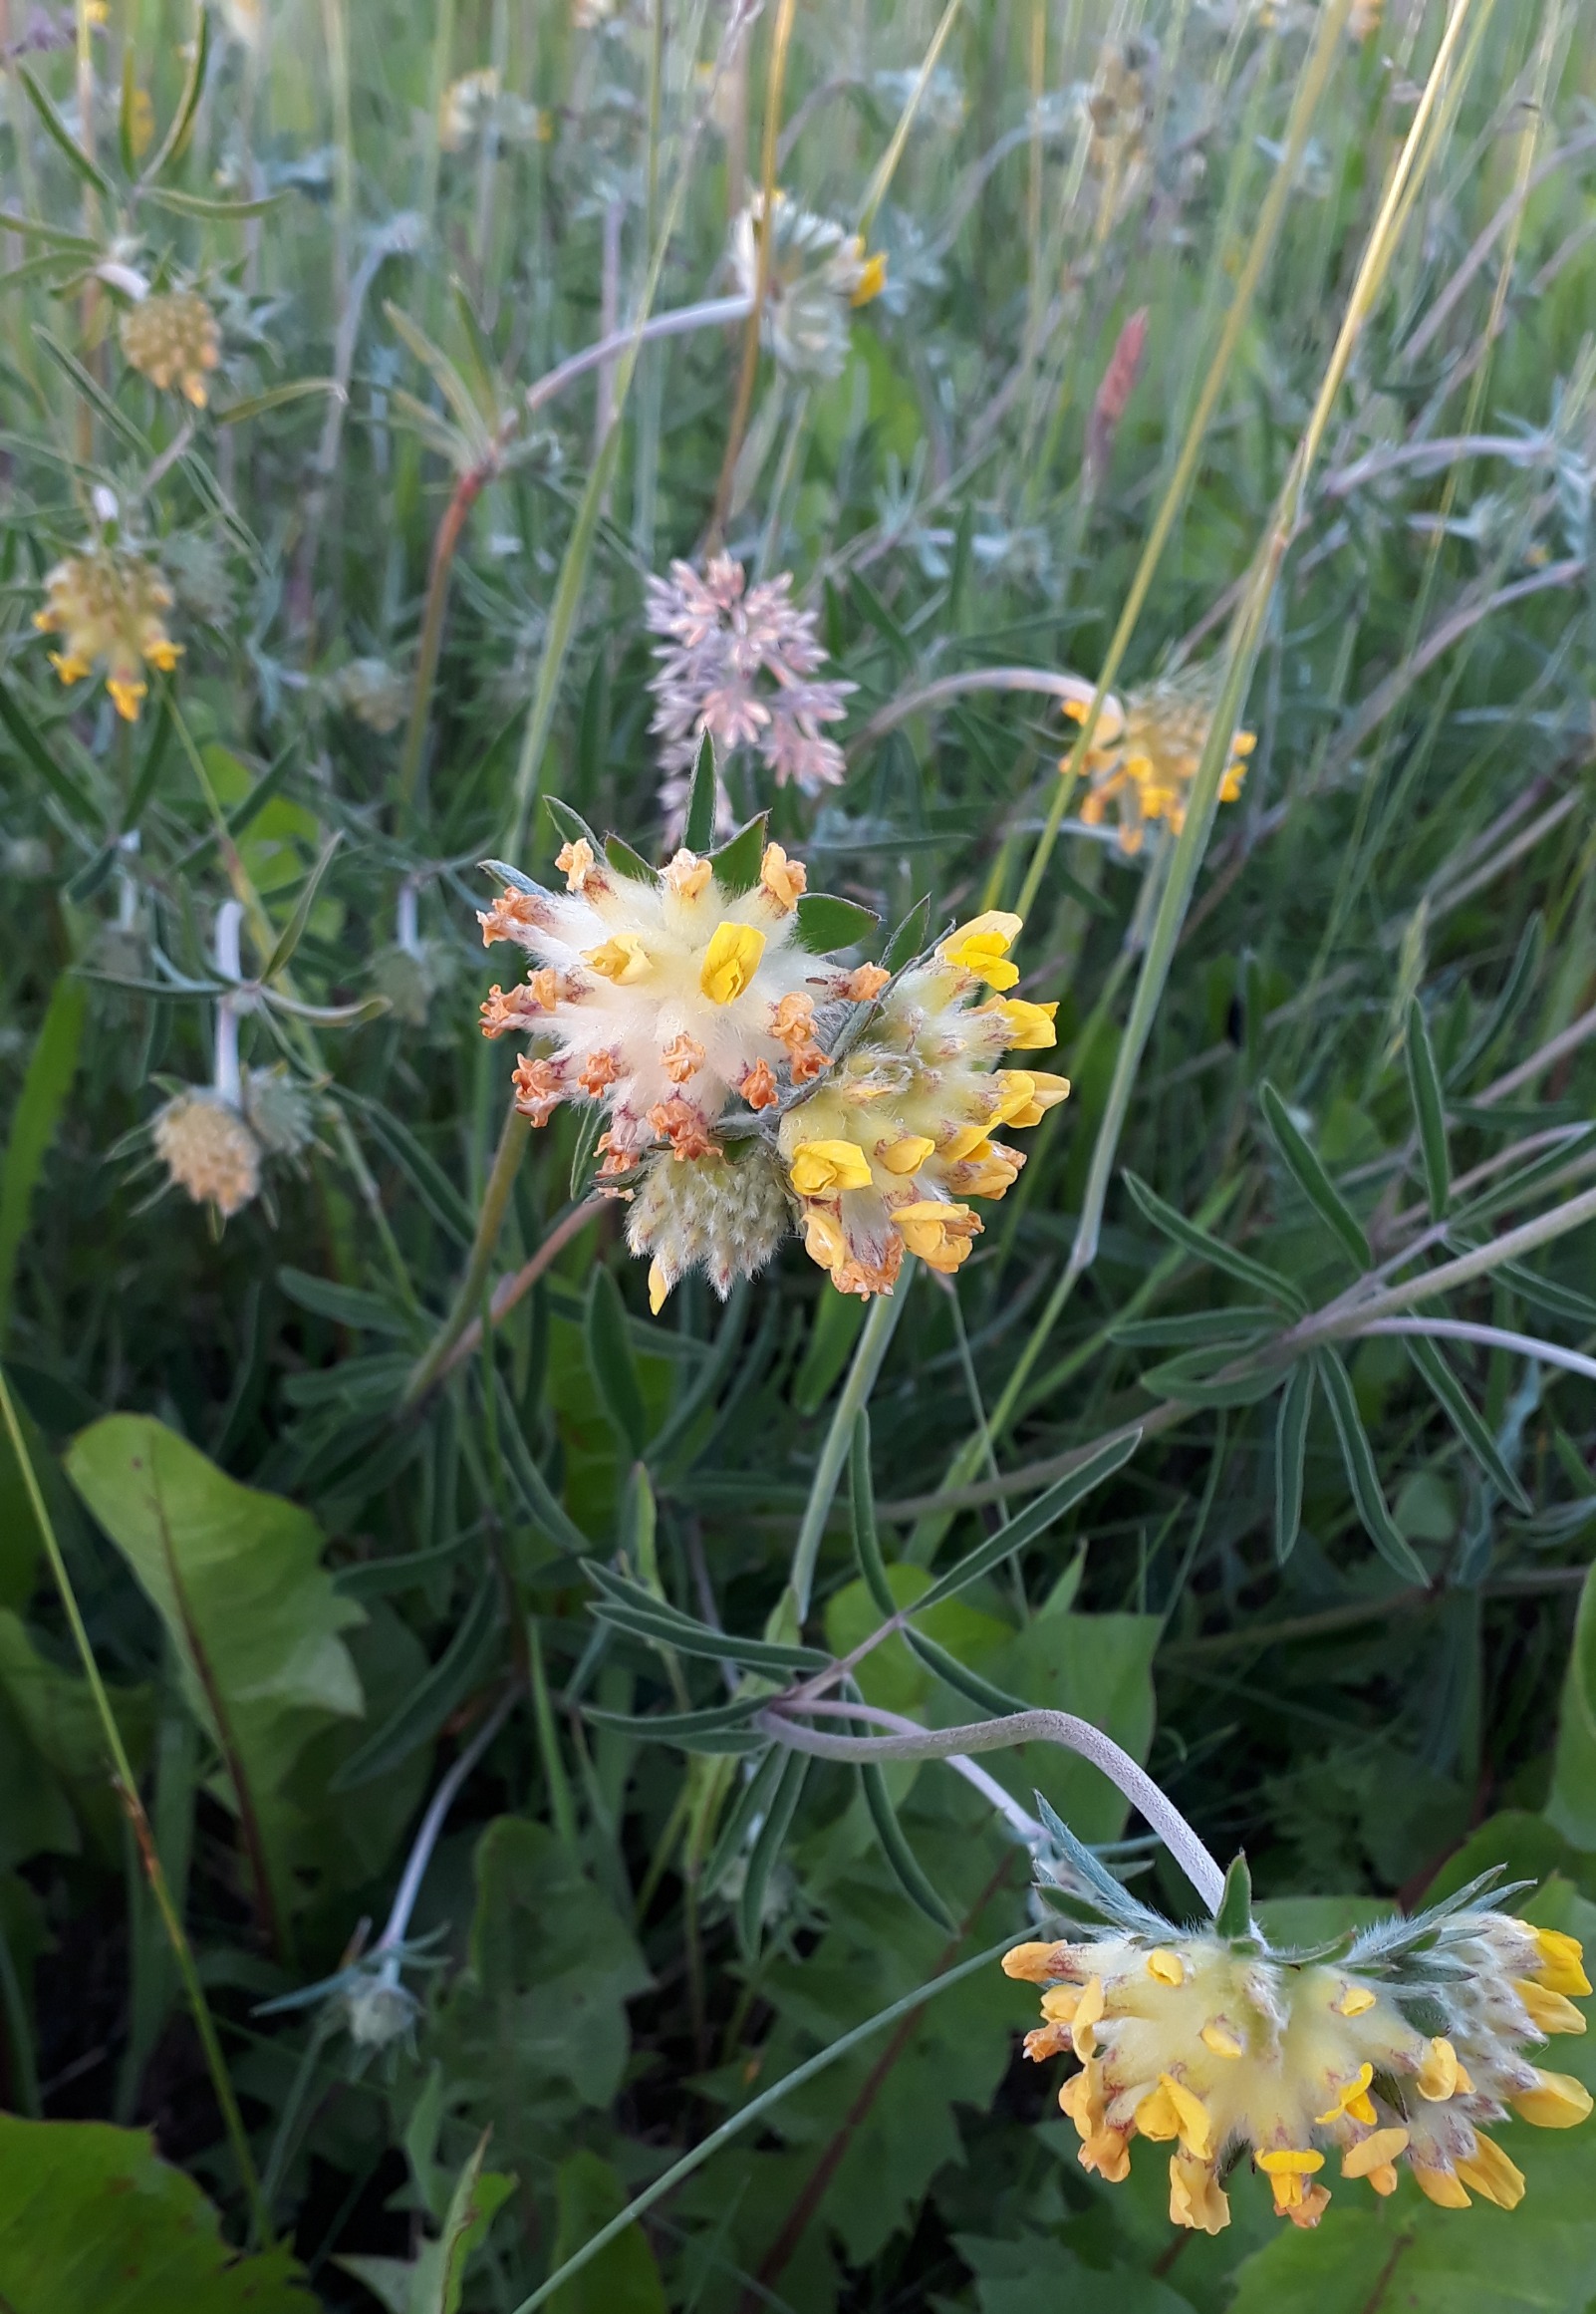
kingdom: Plantae
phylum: Tracheophyta
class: Magnoliopsida
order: Fabales
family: Fabaceae
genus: Anthyllis
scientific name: Anthyllis vulneraria
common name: Rundbælg
